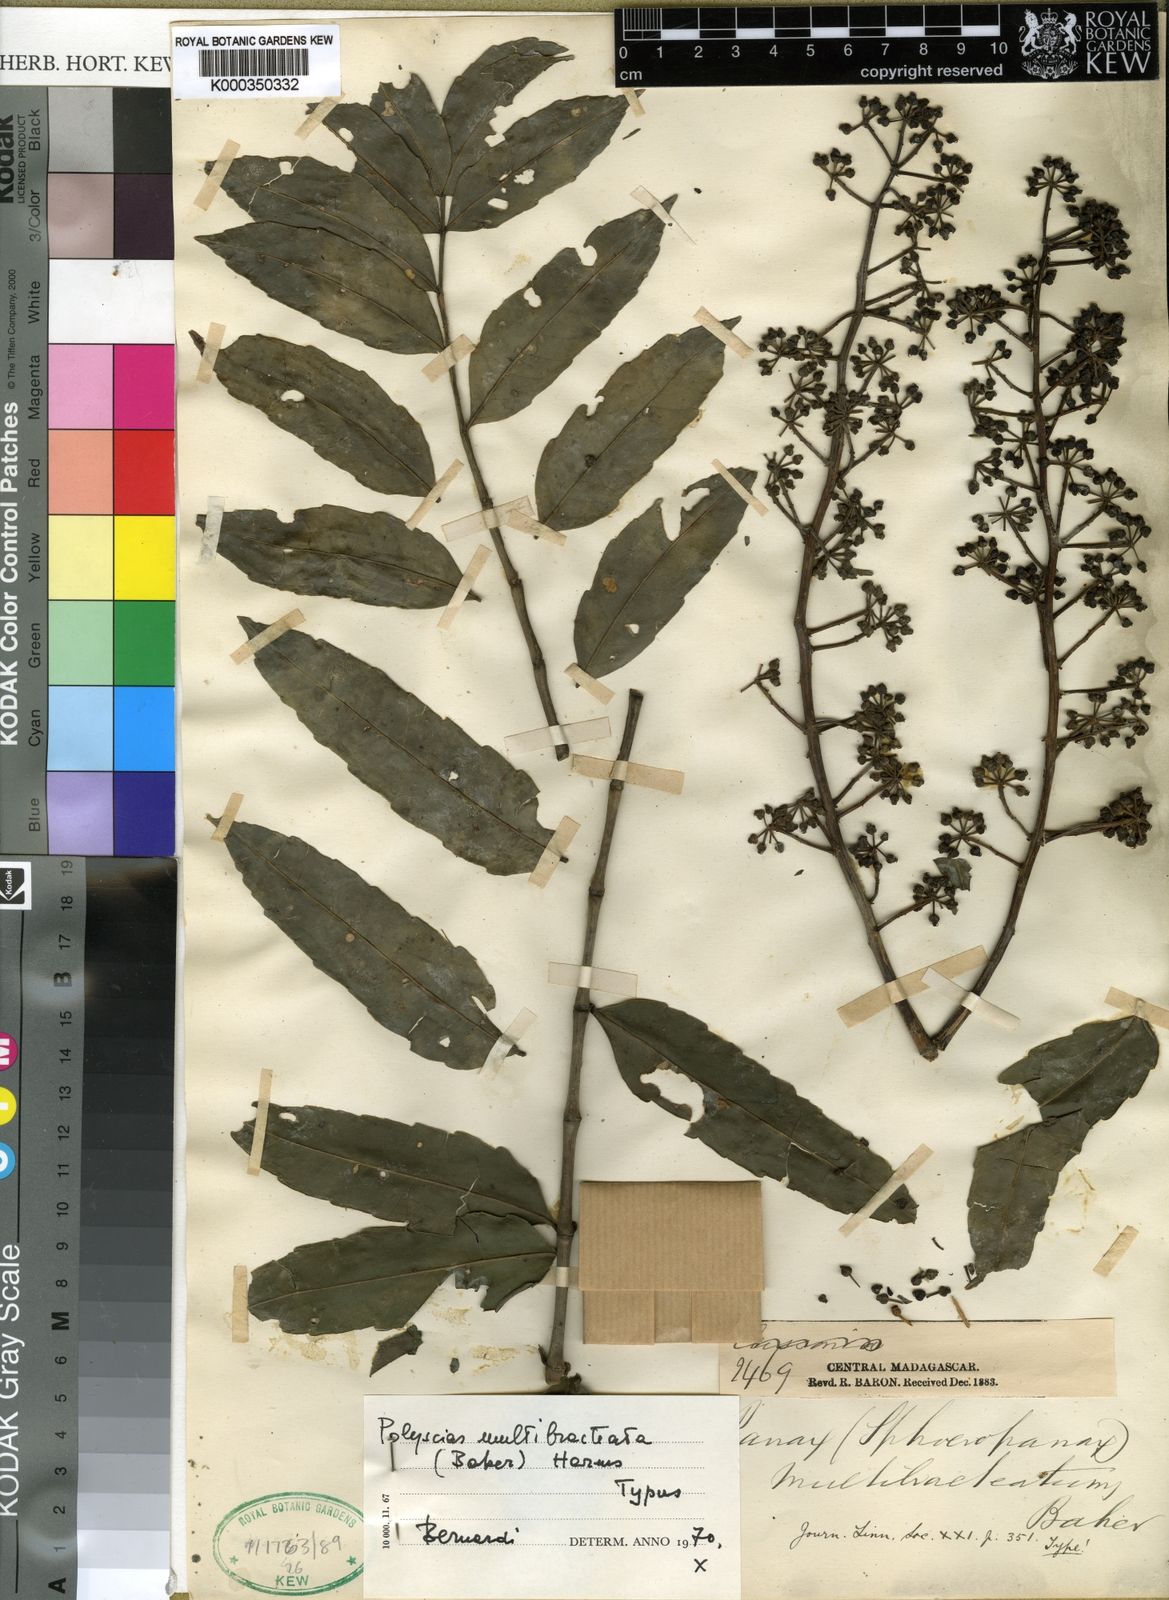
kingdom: Plantae
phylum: Tracheophyta
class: Magnoliopsida
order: Apiales
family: Araliaceae
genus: Polyscias
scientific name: Polyscias multibracteata
